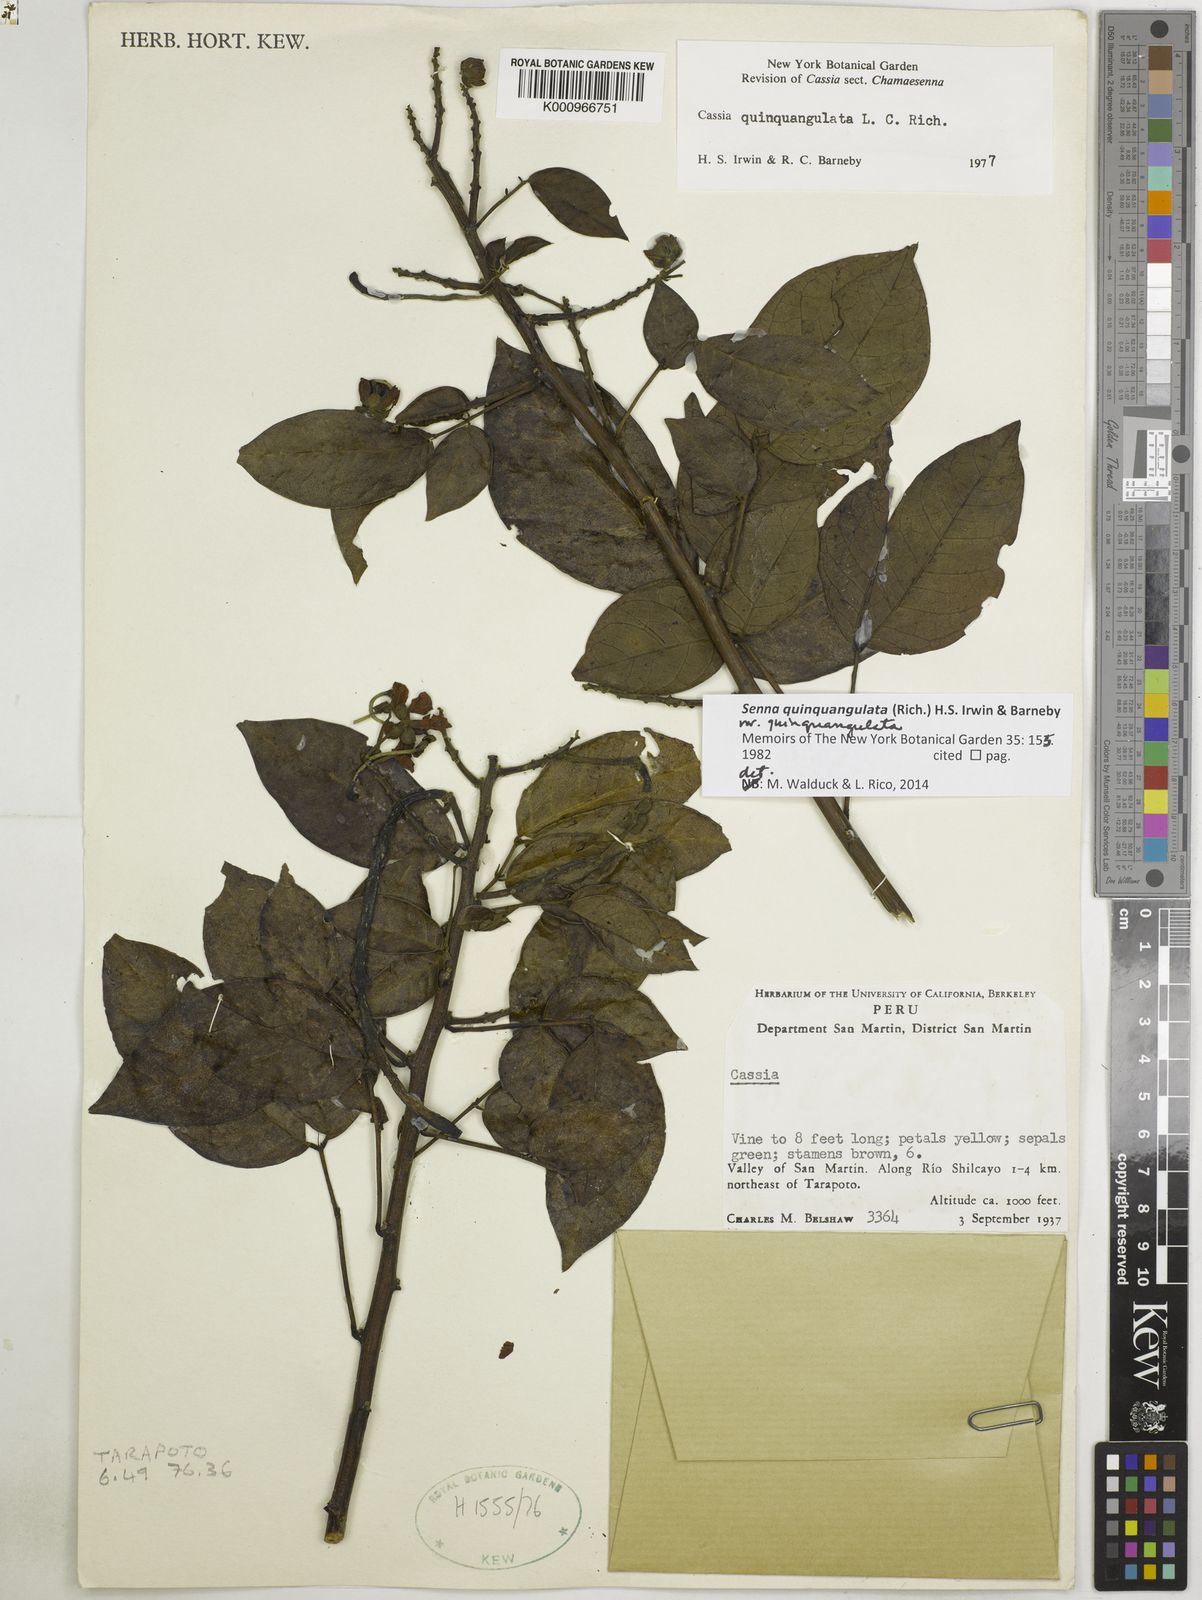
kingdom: Plantae
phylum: Tracheophyta
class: Magnoliopsida
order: Fabales
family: Fabaceae
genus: Senna
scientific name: Senna
